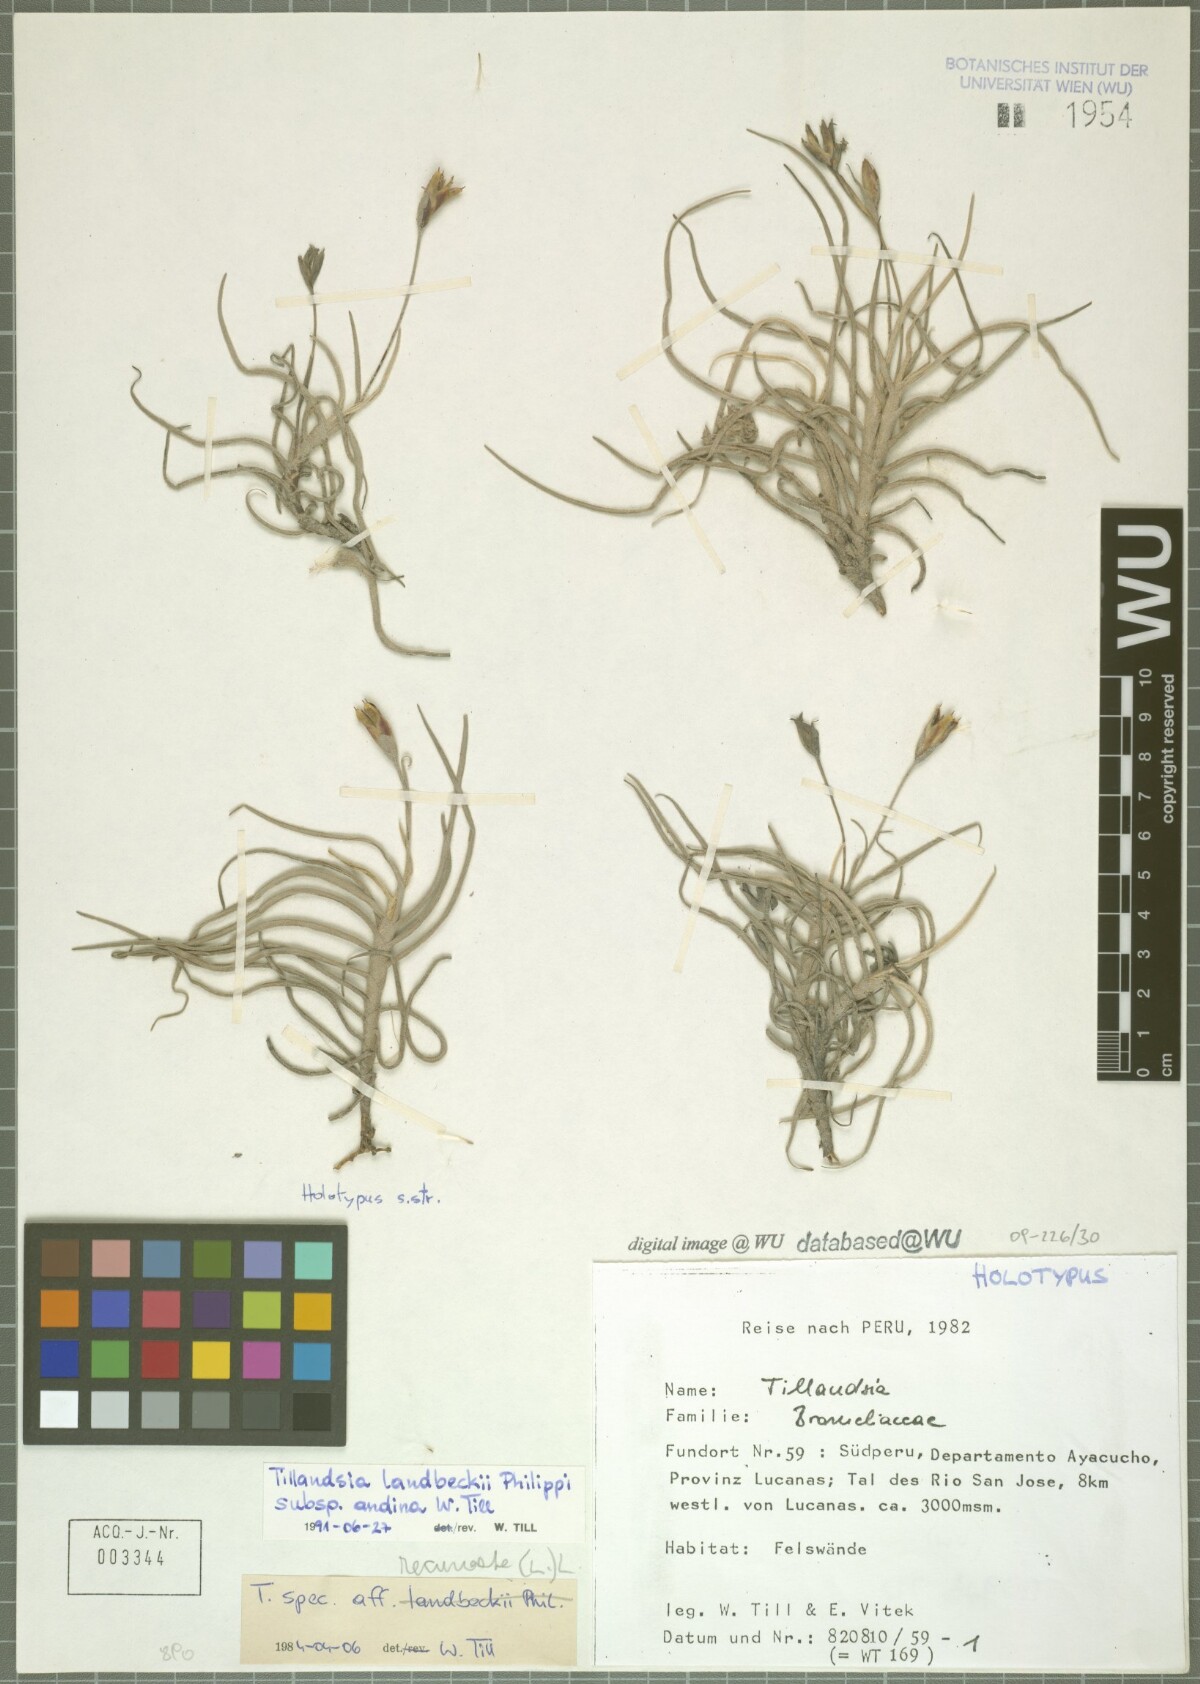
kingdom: Plantae
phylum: Tracheophyta
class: Liliopsida
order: Poales
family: Bromeliaceae
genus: Tillandsia
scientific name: Tillandsia landbeckii
